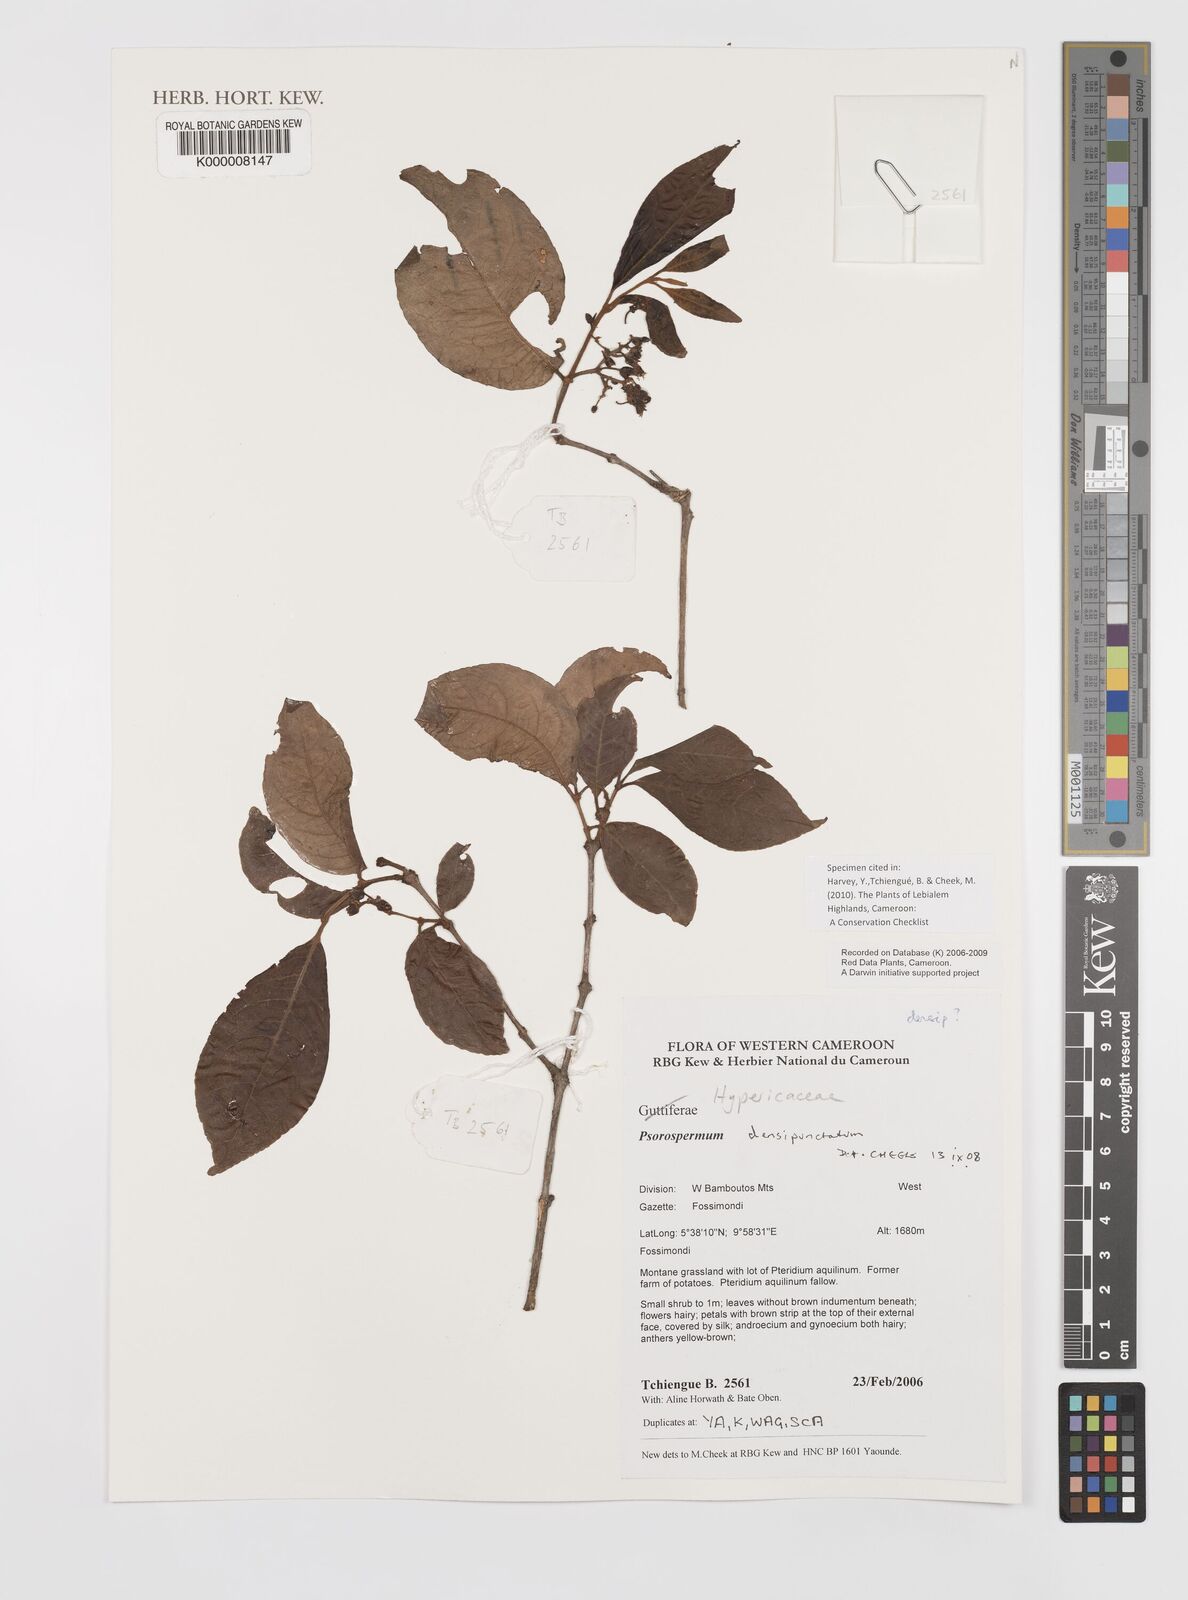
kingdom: Plantae
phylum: Tracheophyta
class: Magnoliopsida
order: Malpighiales
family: Hypericaceae
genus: Psorospermum
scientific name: Psorospermum densipunctatum
